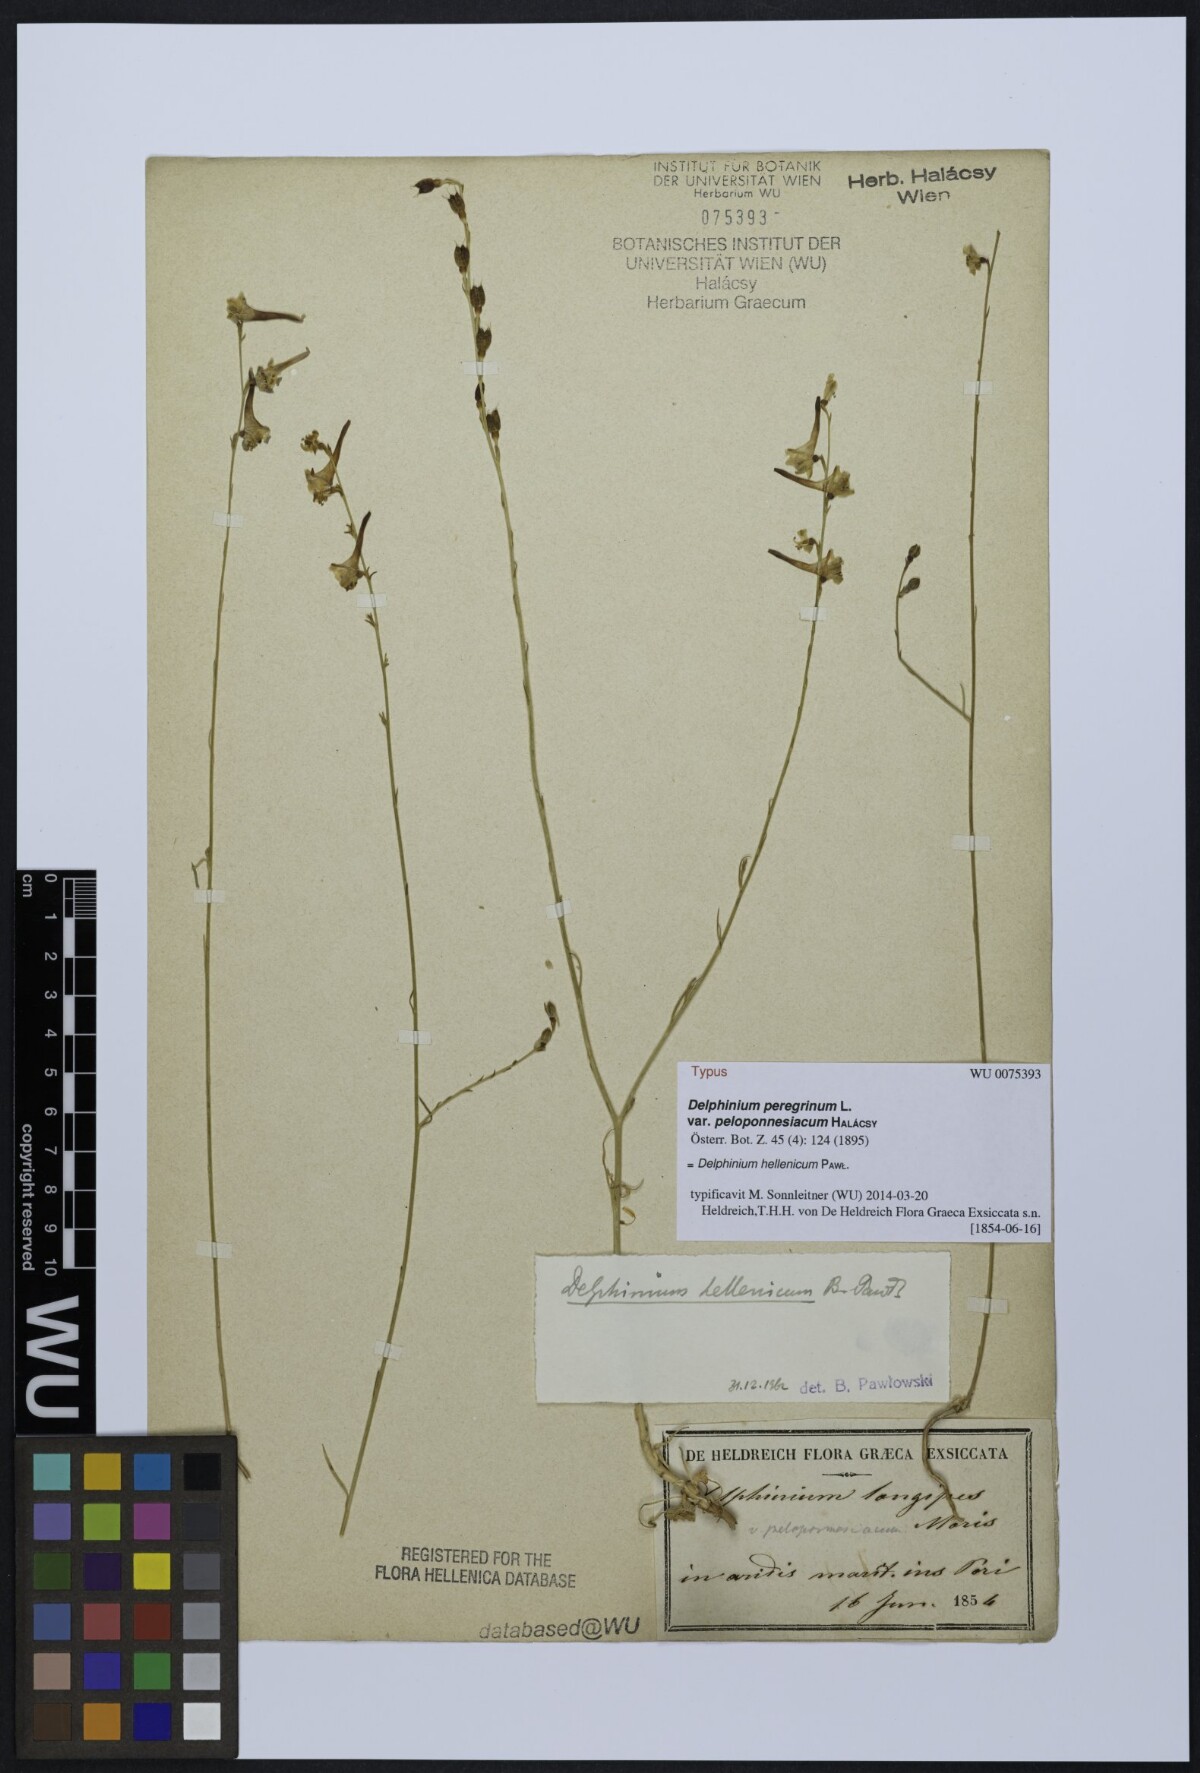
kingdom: Plantae
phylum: Tracheophyta
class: Magnoliopsida
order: Ranunculales
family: Ranunculaceae
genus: Delphinium
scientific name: Delphinium hellenicum
